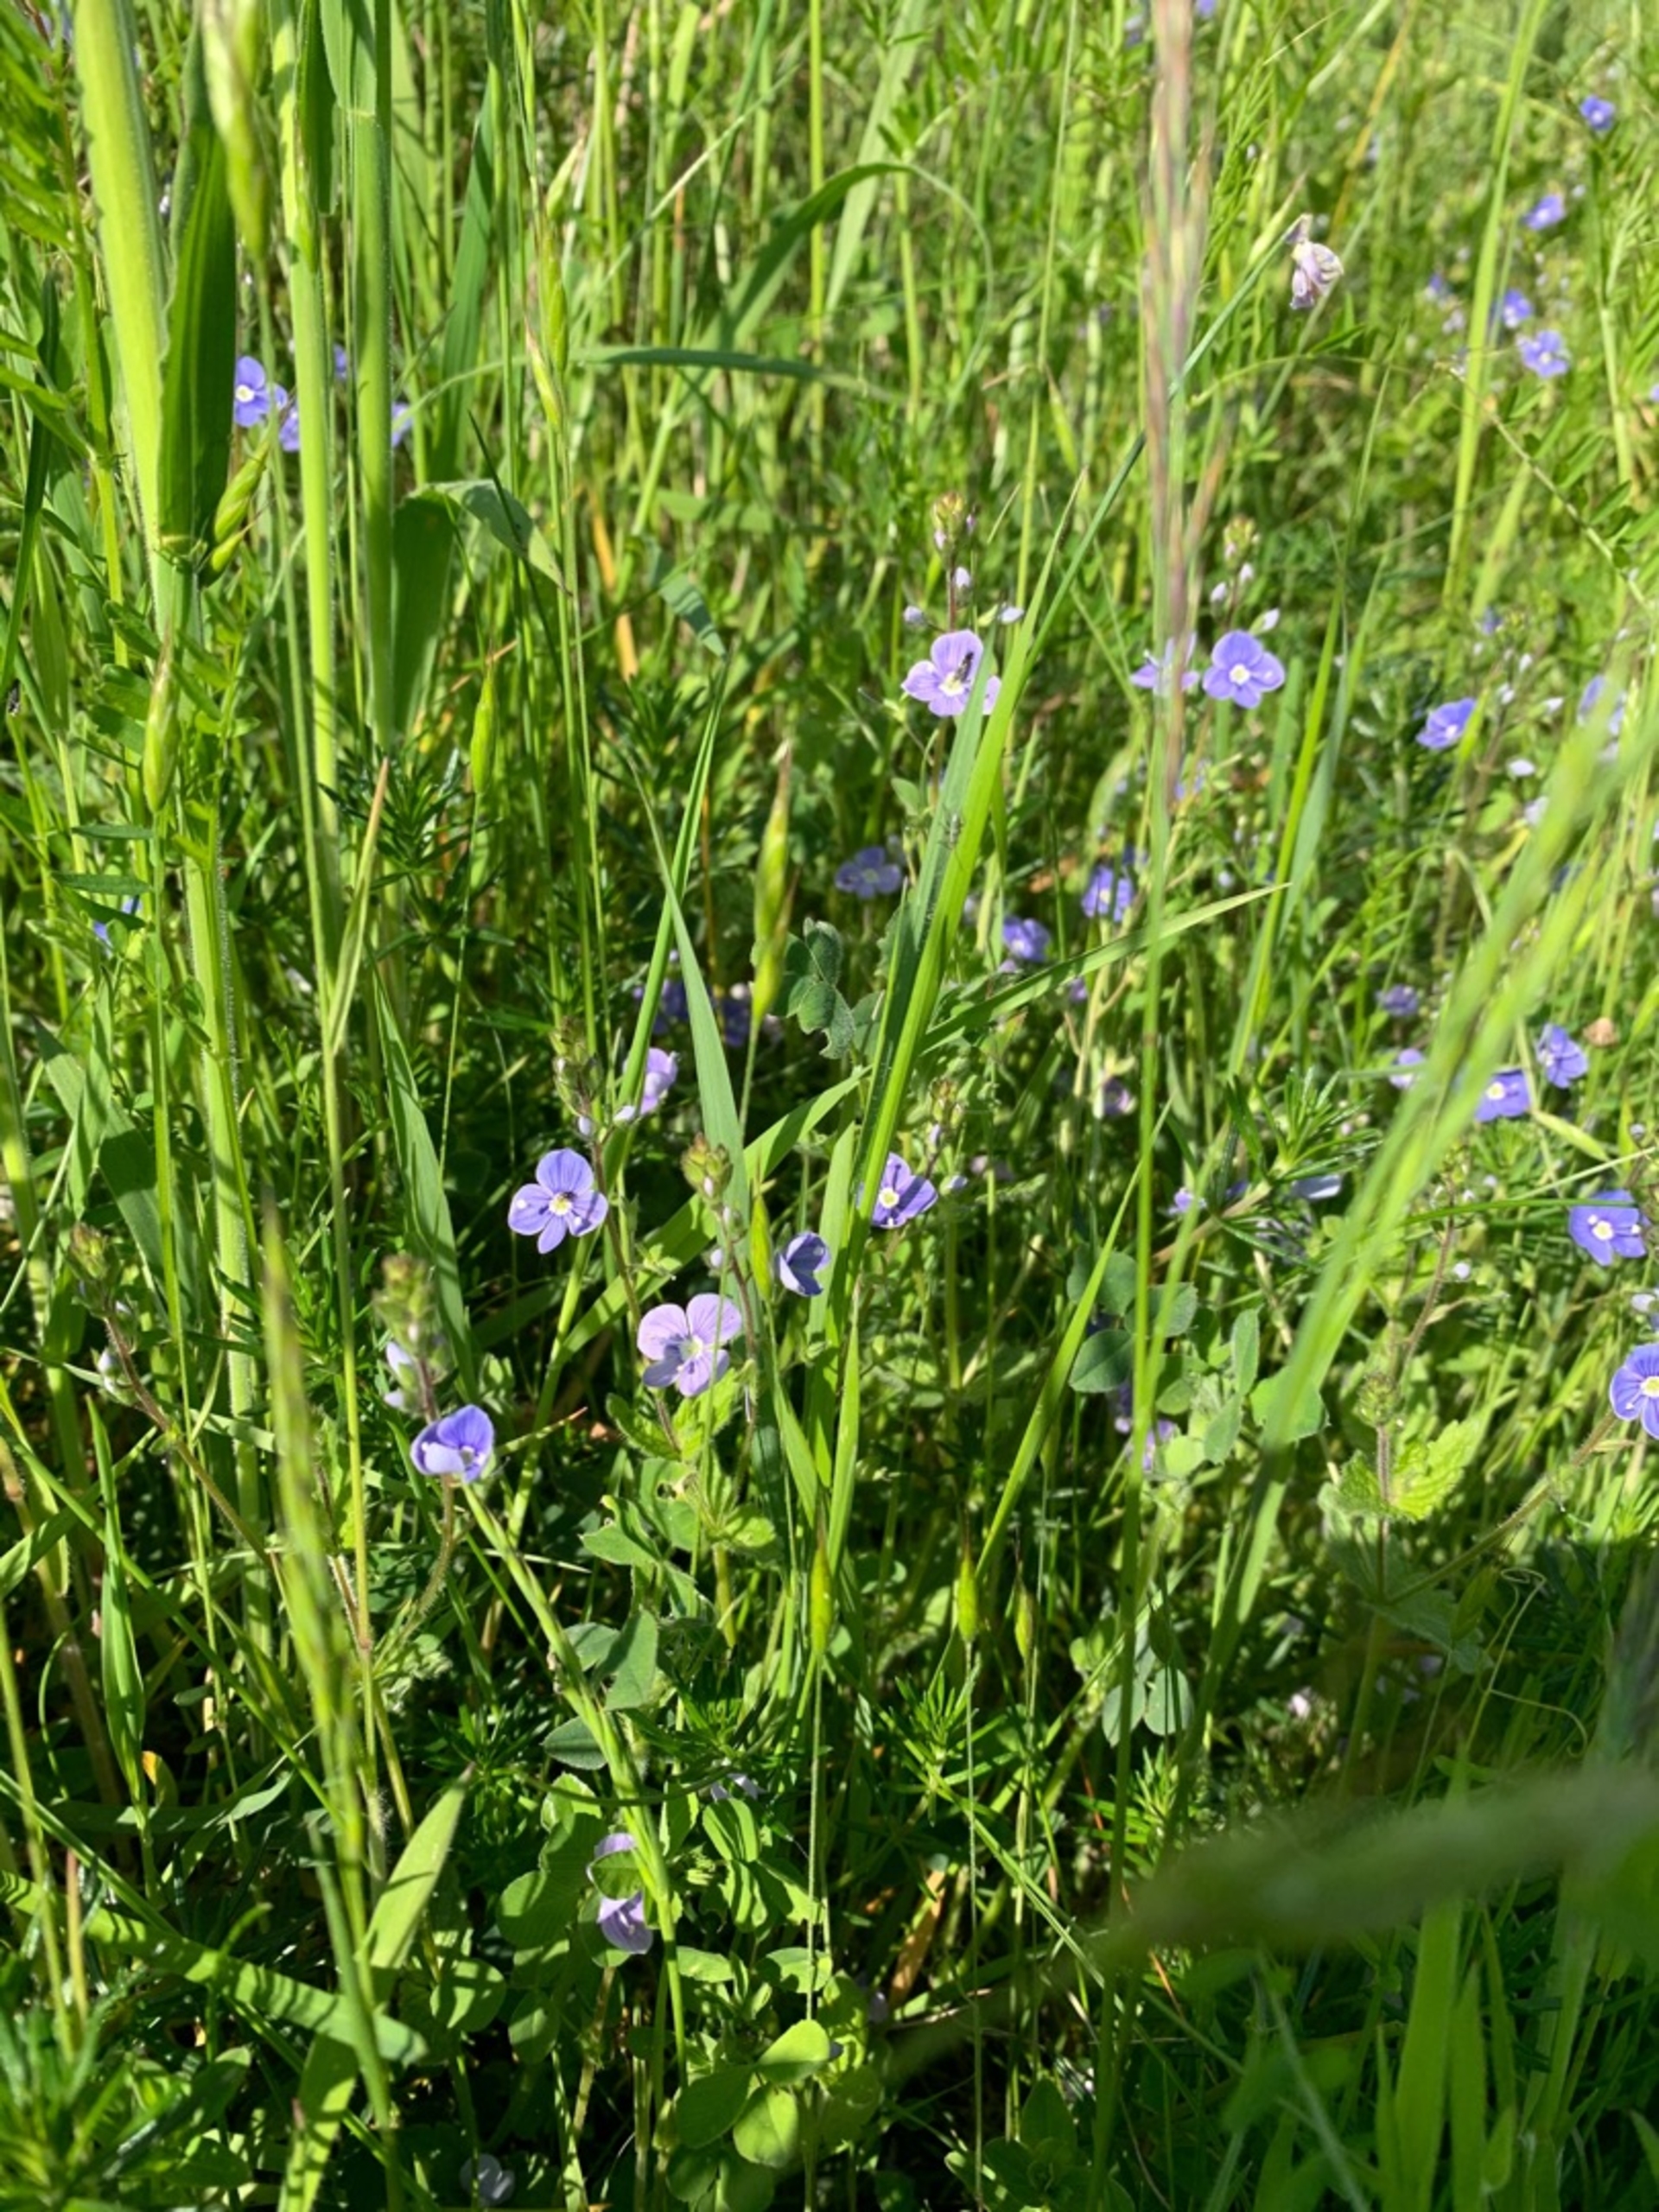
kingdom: Plantae
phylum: Tracheophyta
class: Magnoliopsida
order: Lamiales
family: Plantaginaceae
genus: Veronica
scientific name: Veronica chamaedrys
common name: Tveskægget ærenpris
